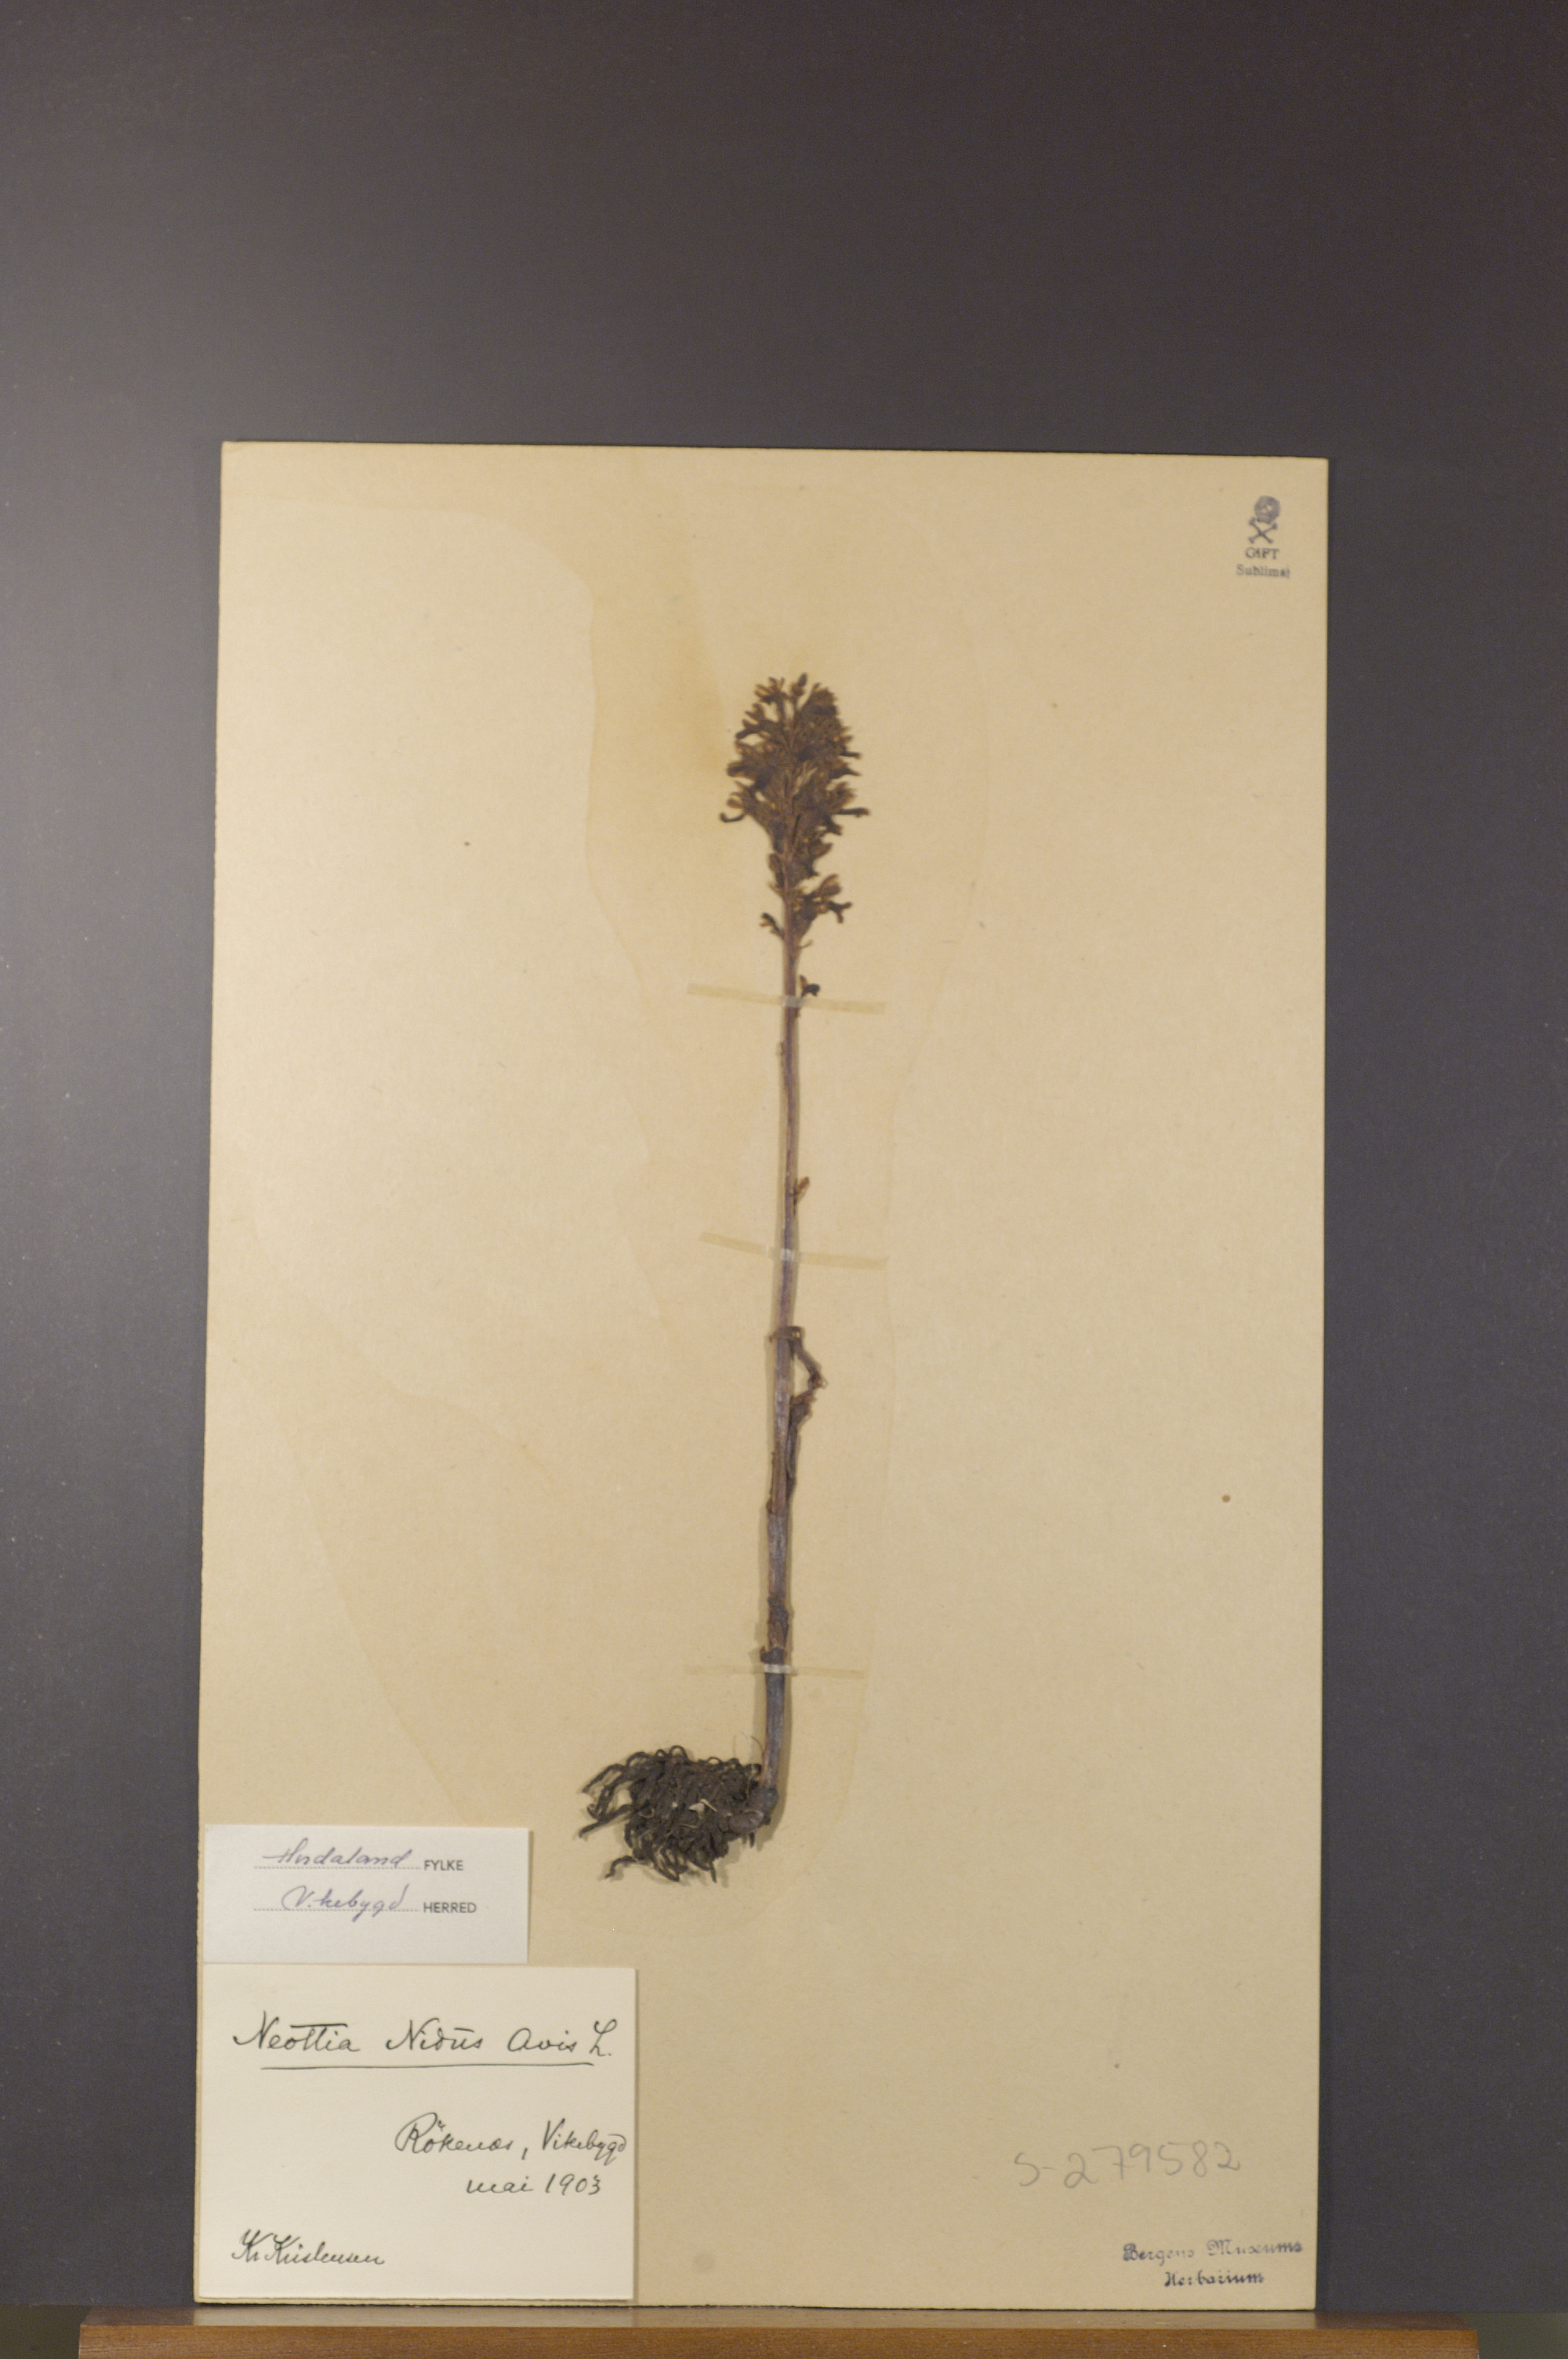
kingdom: Plantae
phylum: Tracheophyta
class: Liliopsida
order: Asparagales
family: Orchidaceae
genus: Neottia
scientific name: Neottia nidus-avis
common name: Bird's-nest orchid
